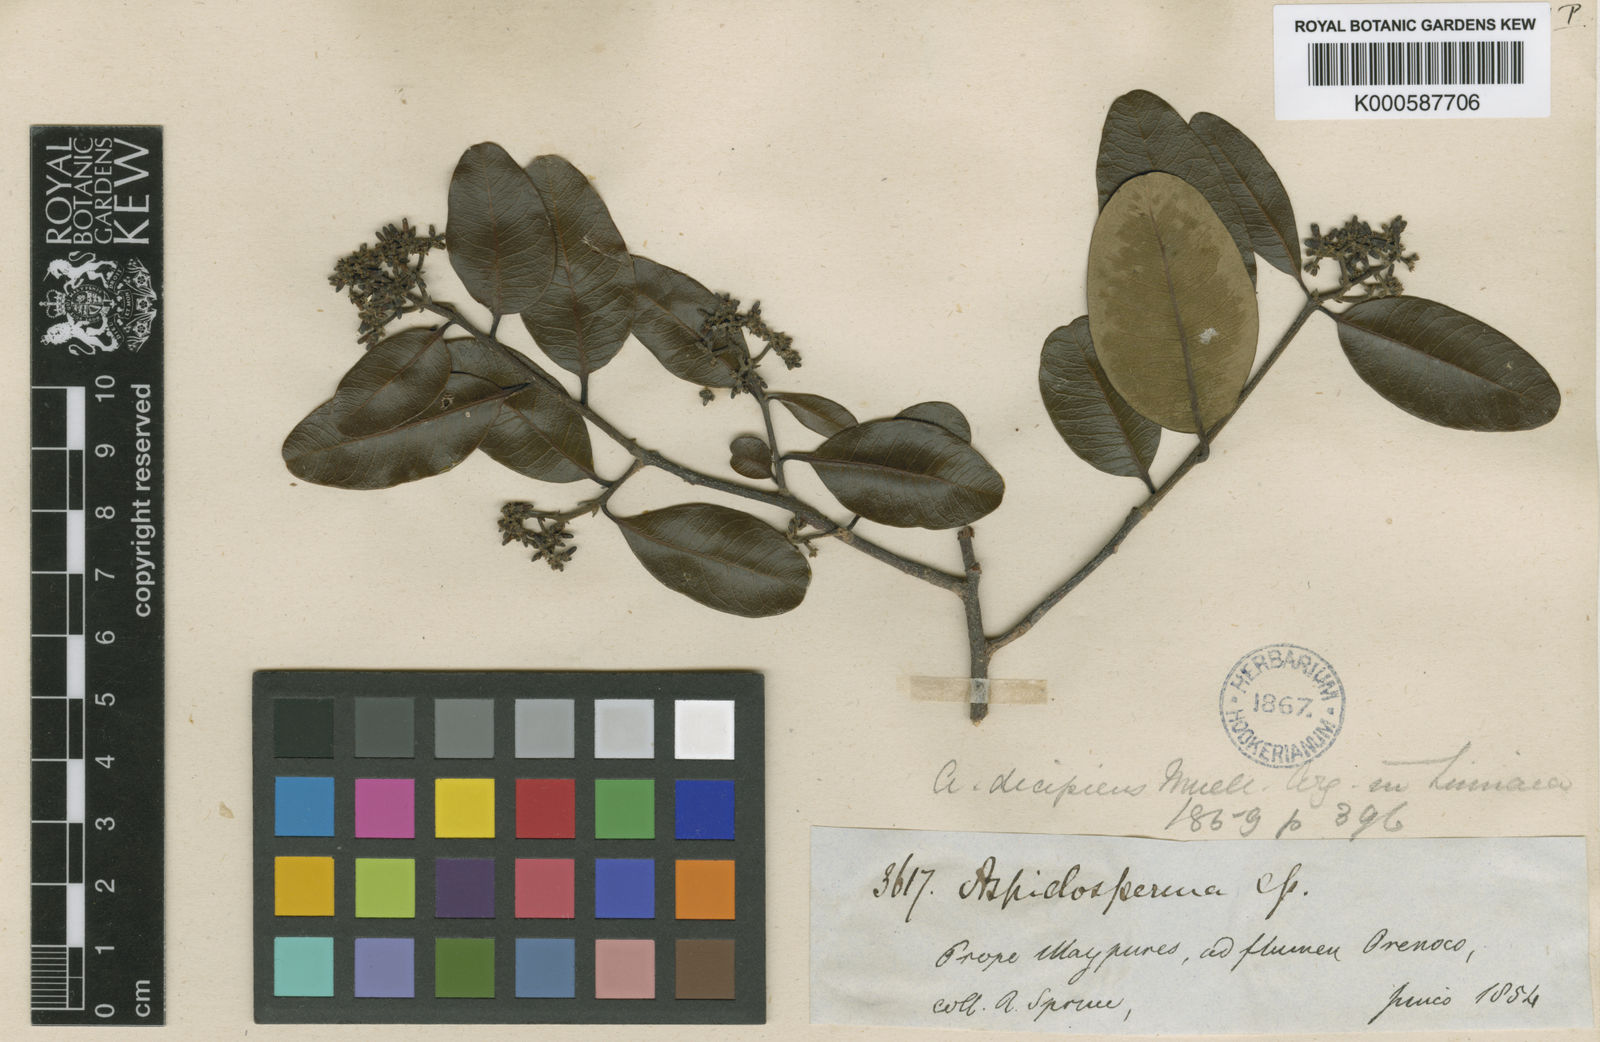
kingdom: Plantae
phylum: Tracheophyta
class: Magnoliopsida
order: Gentianales
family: Apocynaceae
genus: Aspidosperma
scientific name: Aspidosperma
